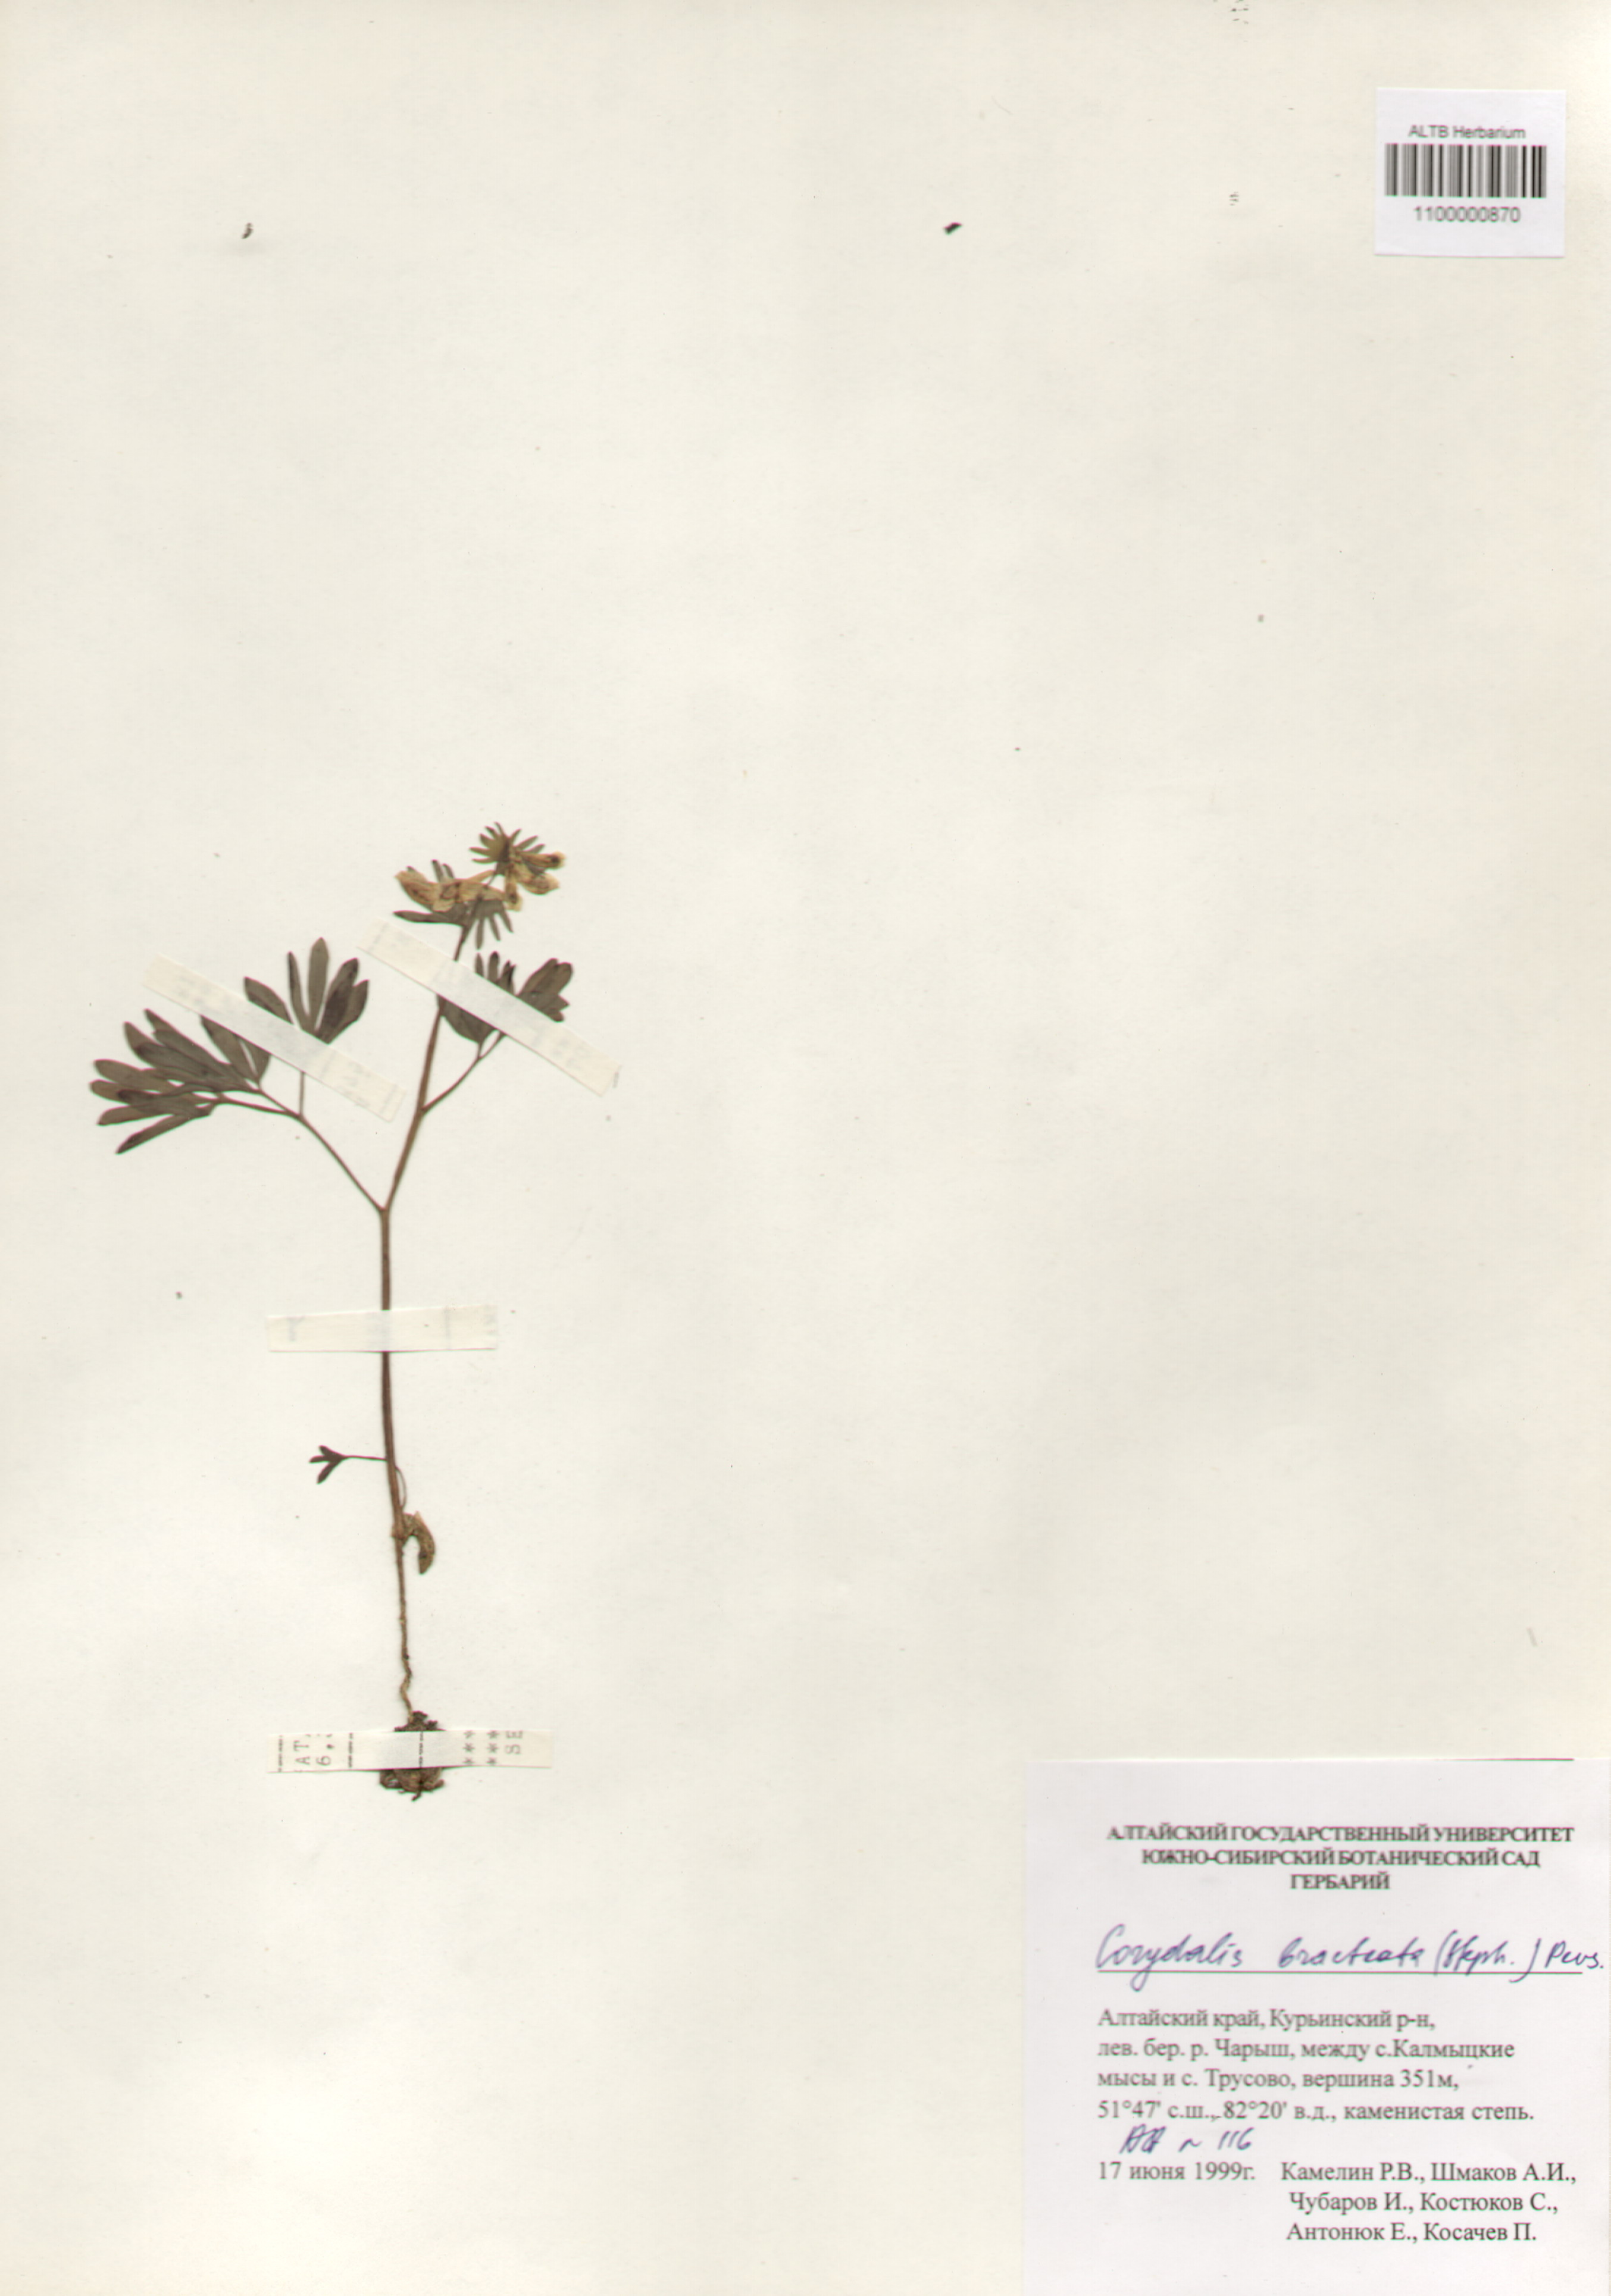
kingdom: Plantae
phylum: Tracheophyta
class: Magnoliopsida
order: Ranunculales
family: Papaveraceae
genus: Corydalis
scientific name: Corydalis bracteata
